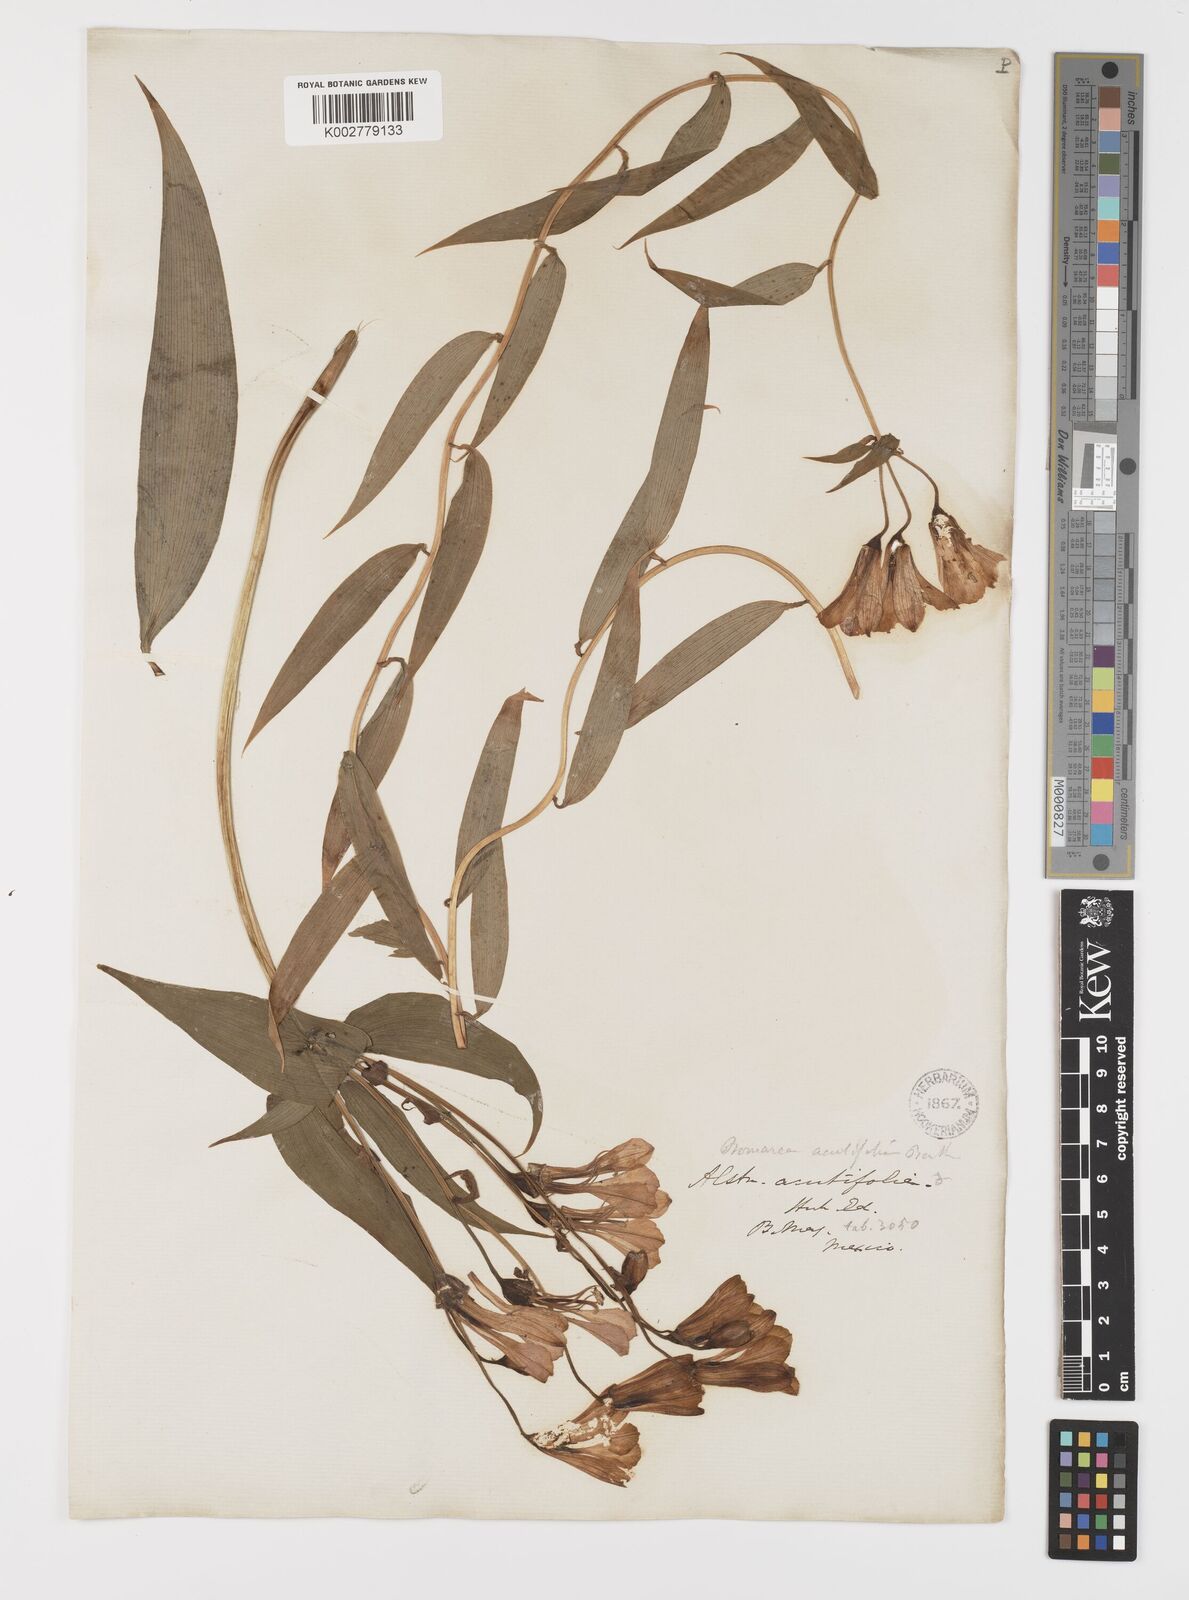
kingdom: Plantae
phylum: Tracheophyta
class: Liliopsida
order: Liliales
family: Alstroemeriaceae
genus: Bomarea
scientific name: Bomarea edulis
